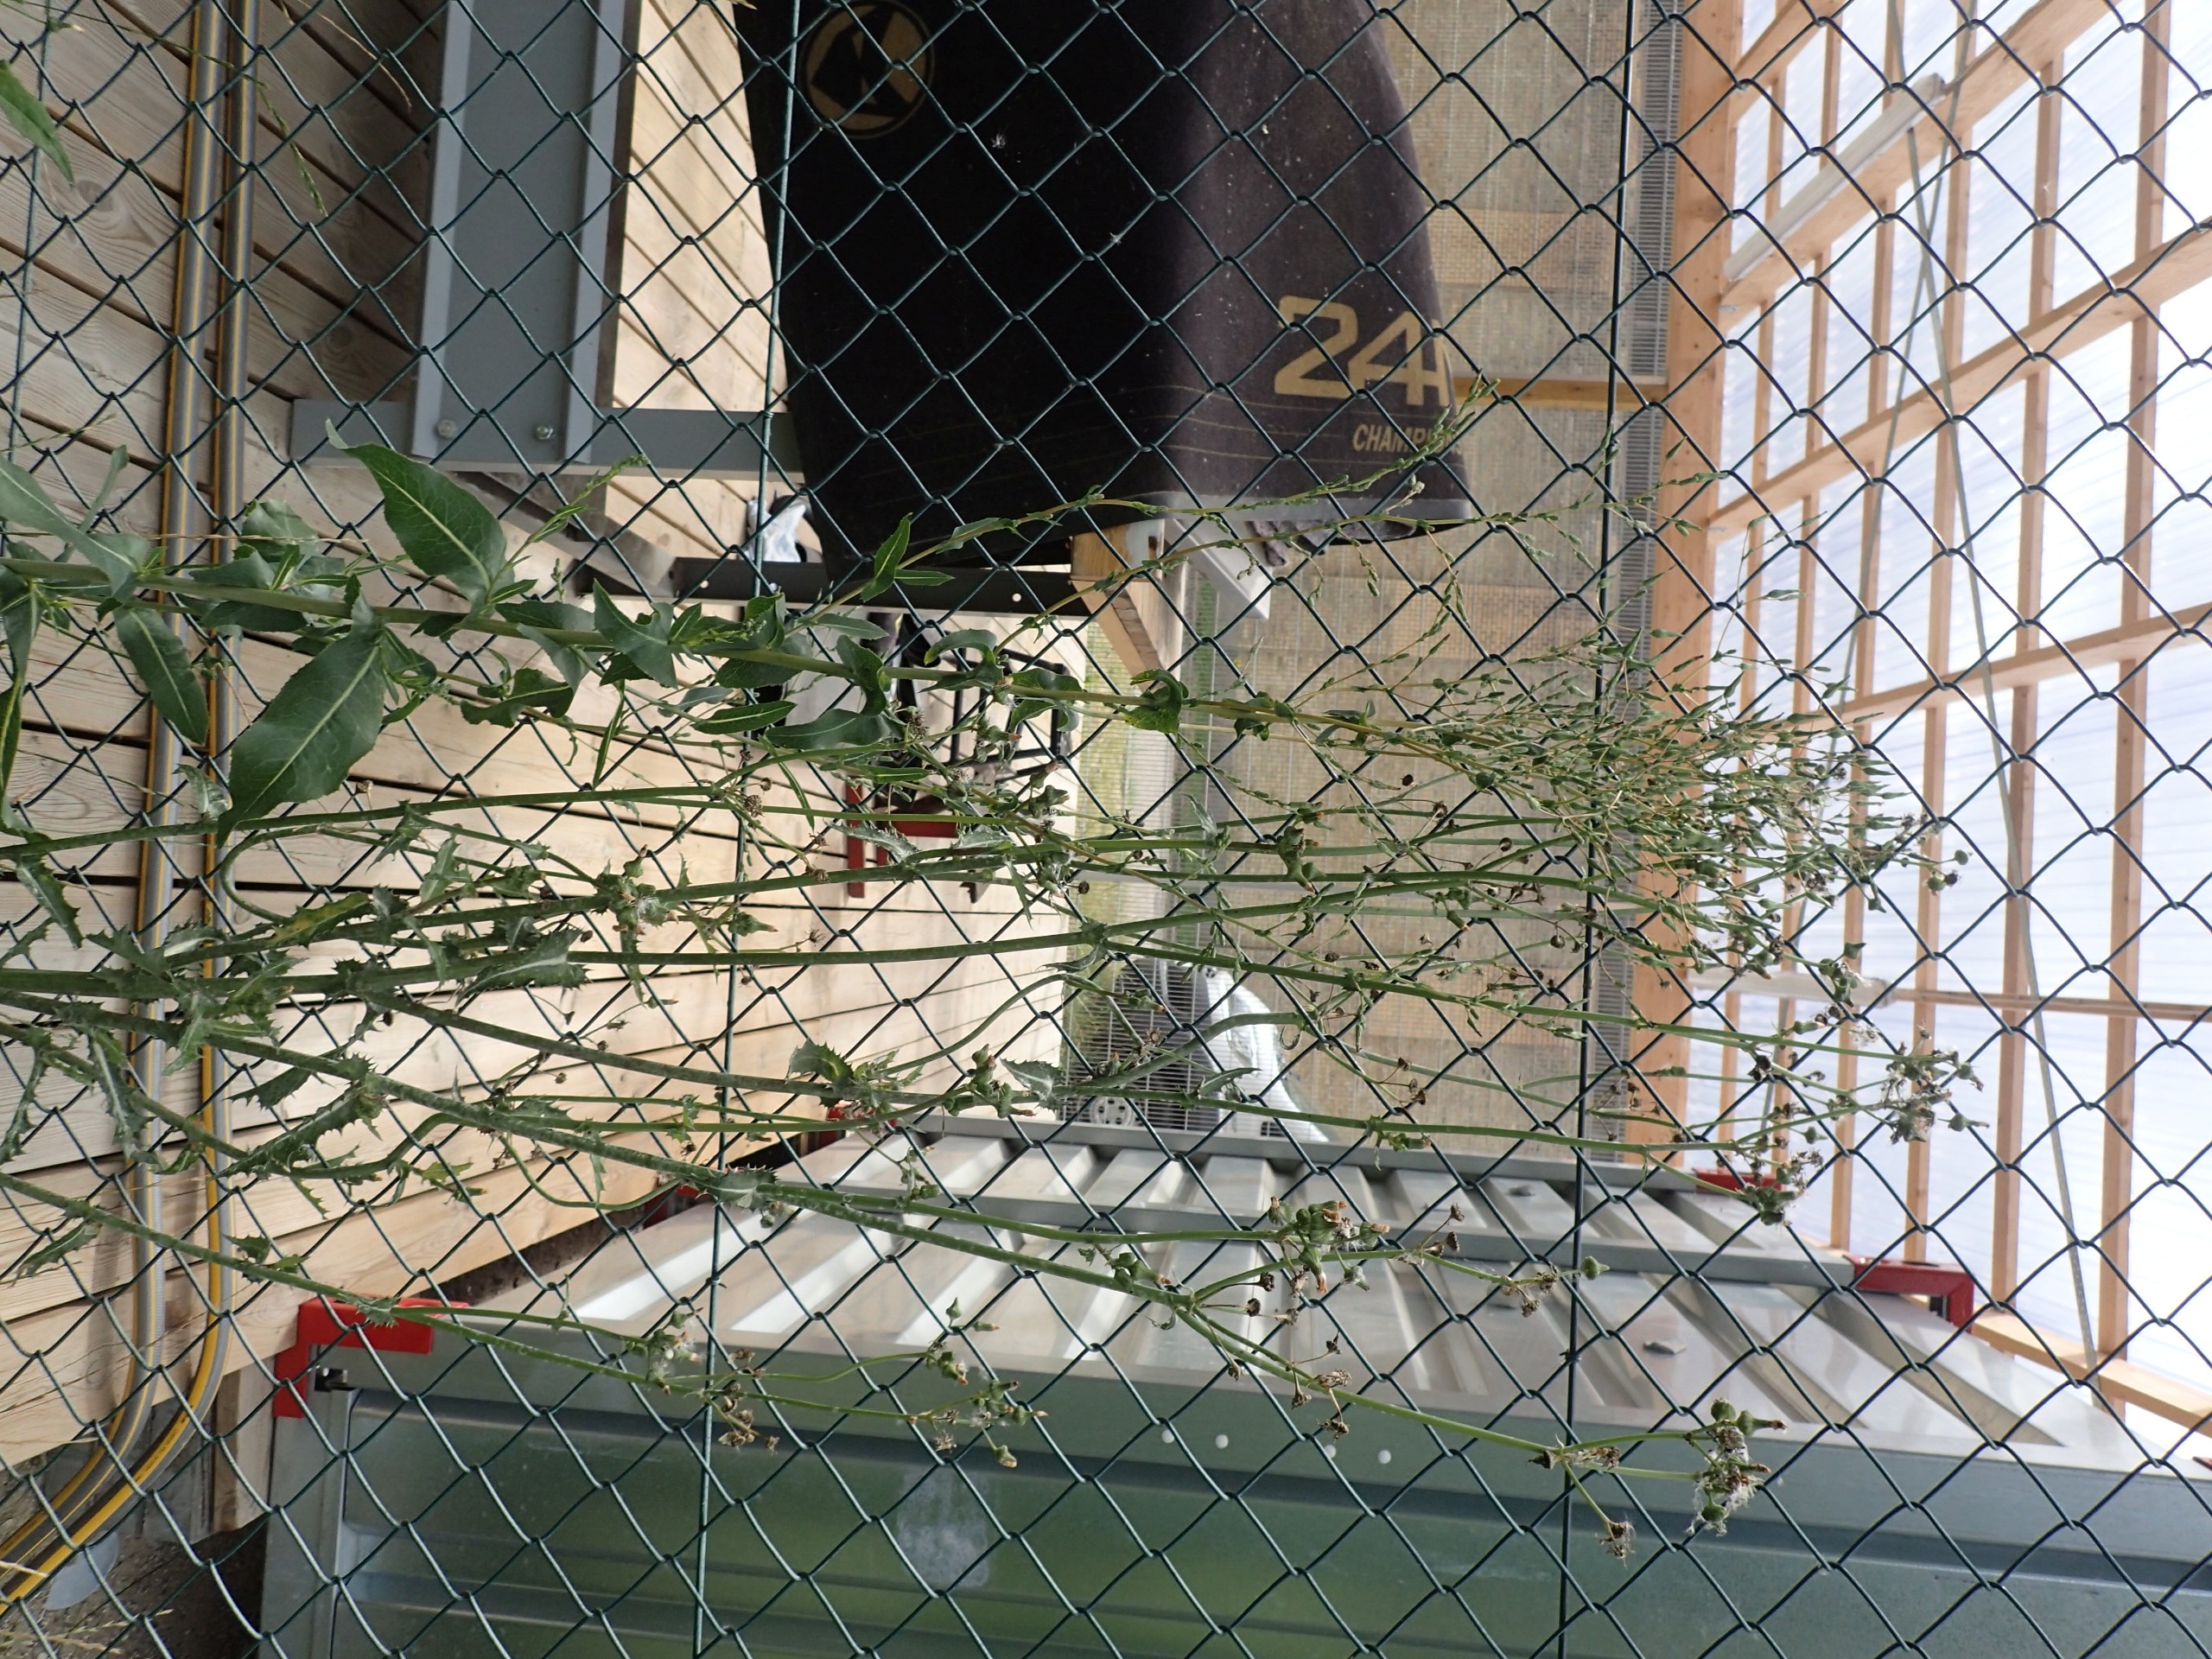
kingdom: Plantae
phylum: Tracheophyta
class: Magnoliopsida
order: Asterales
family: Asteraceae
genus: Lactuca
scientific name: Lactuca serriola
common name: Tornet salat
